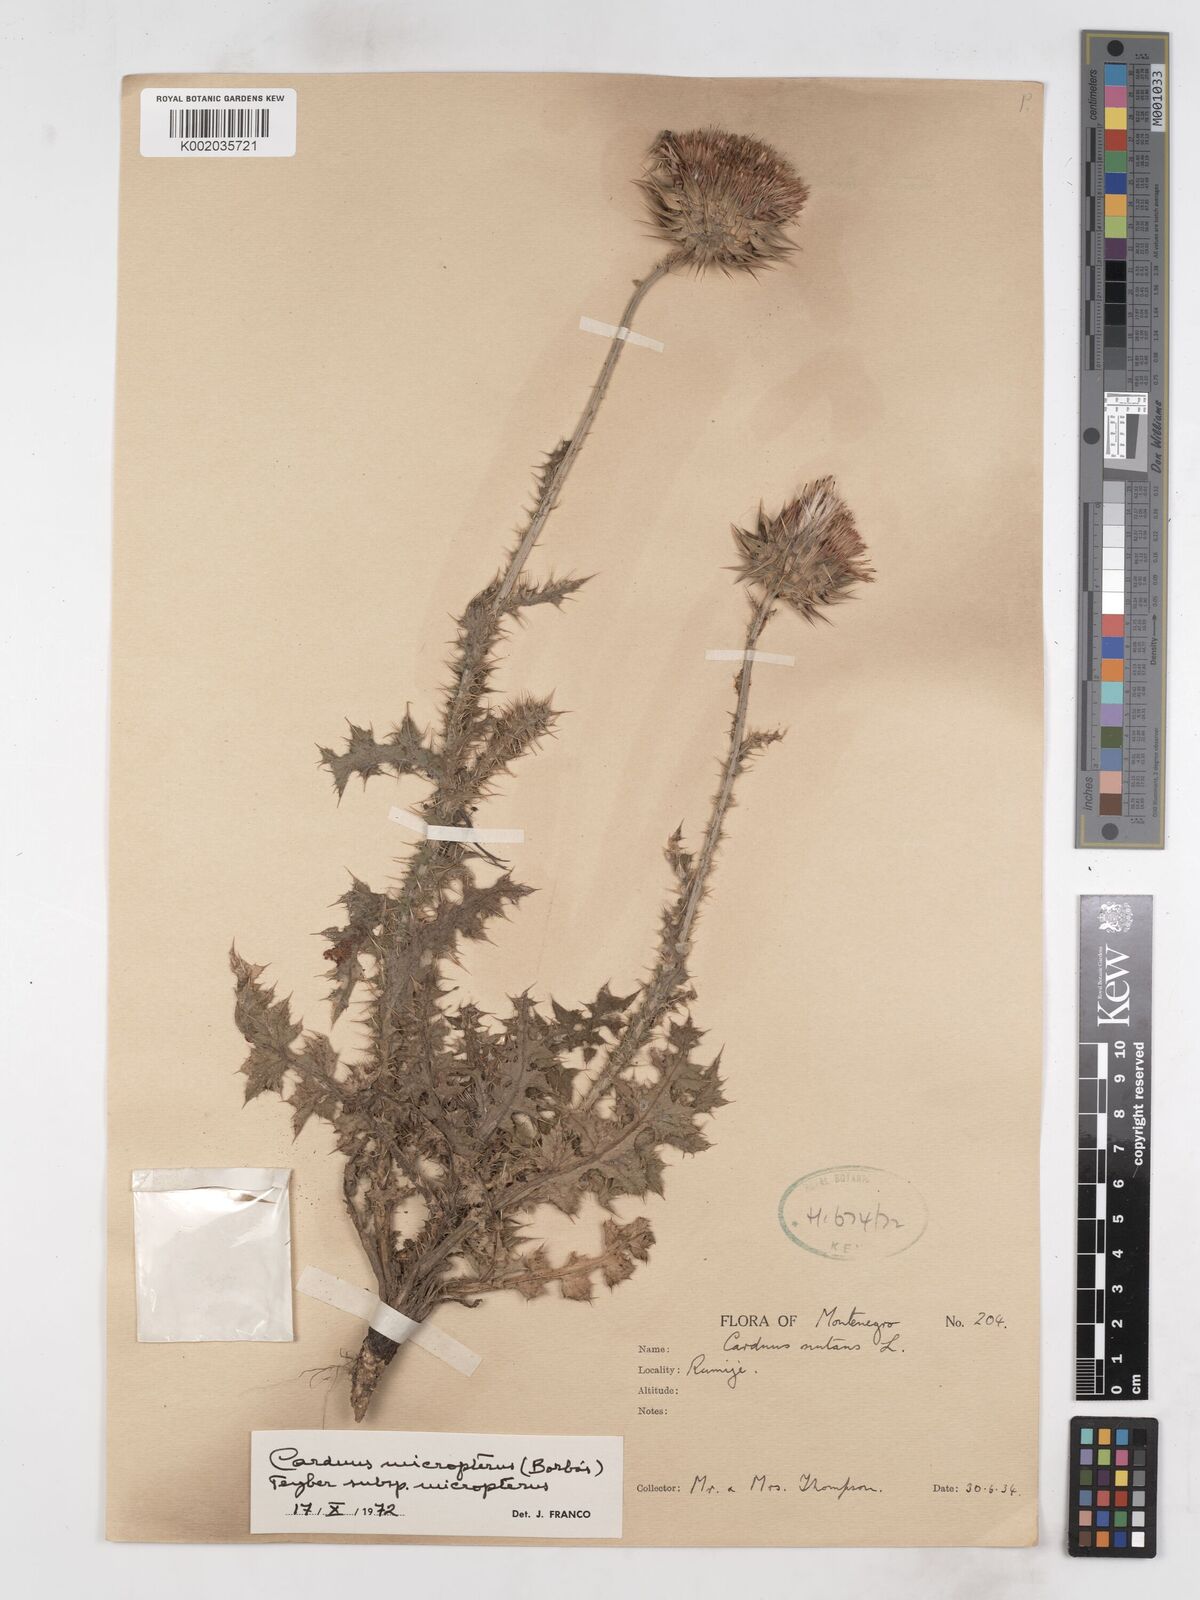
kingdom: Plantae
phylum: Tracheophyta
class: Magnoliopsida
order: Asterales
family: Asteraceae
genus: Carduus
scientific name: Carduus nutans
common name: Musk thistle
